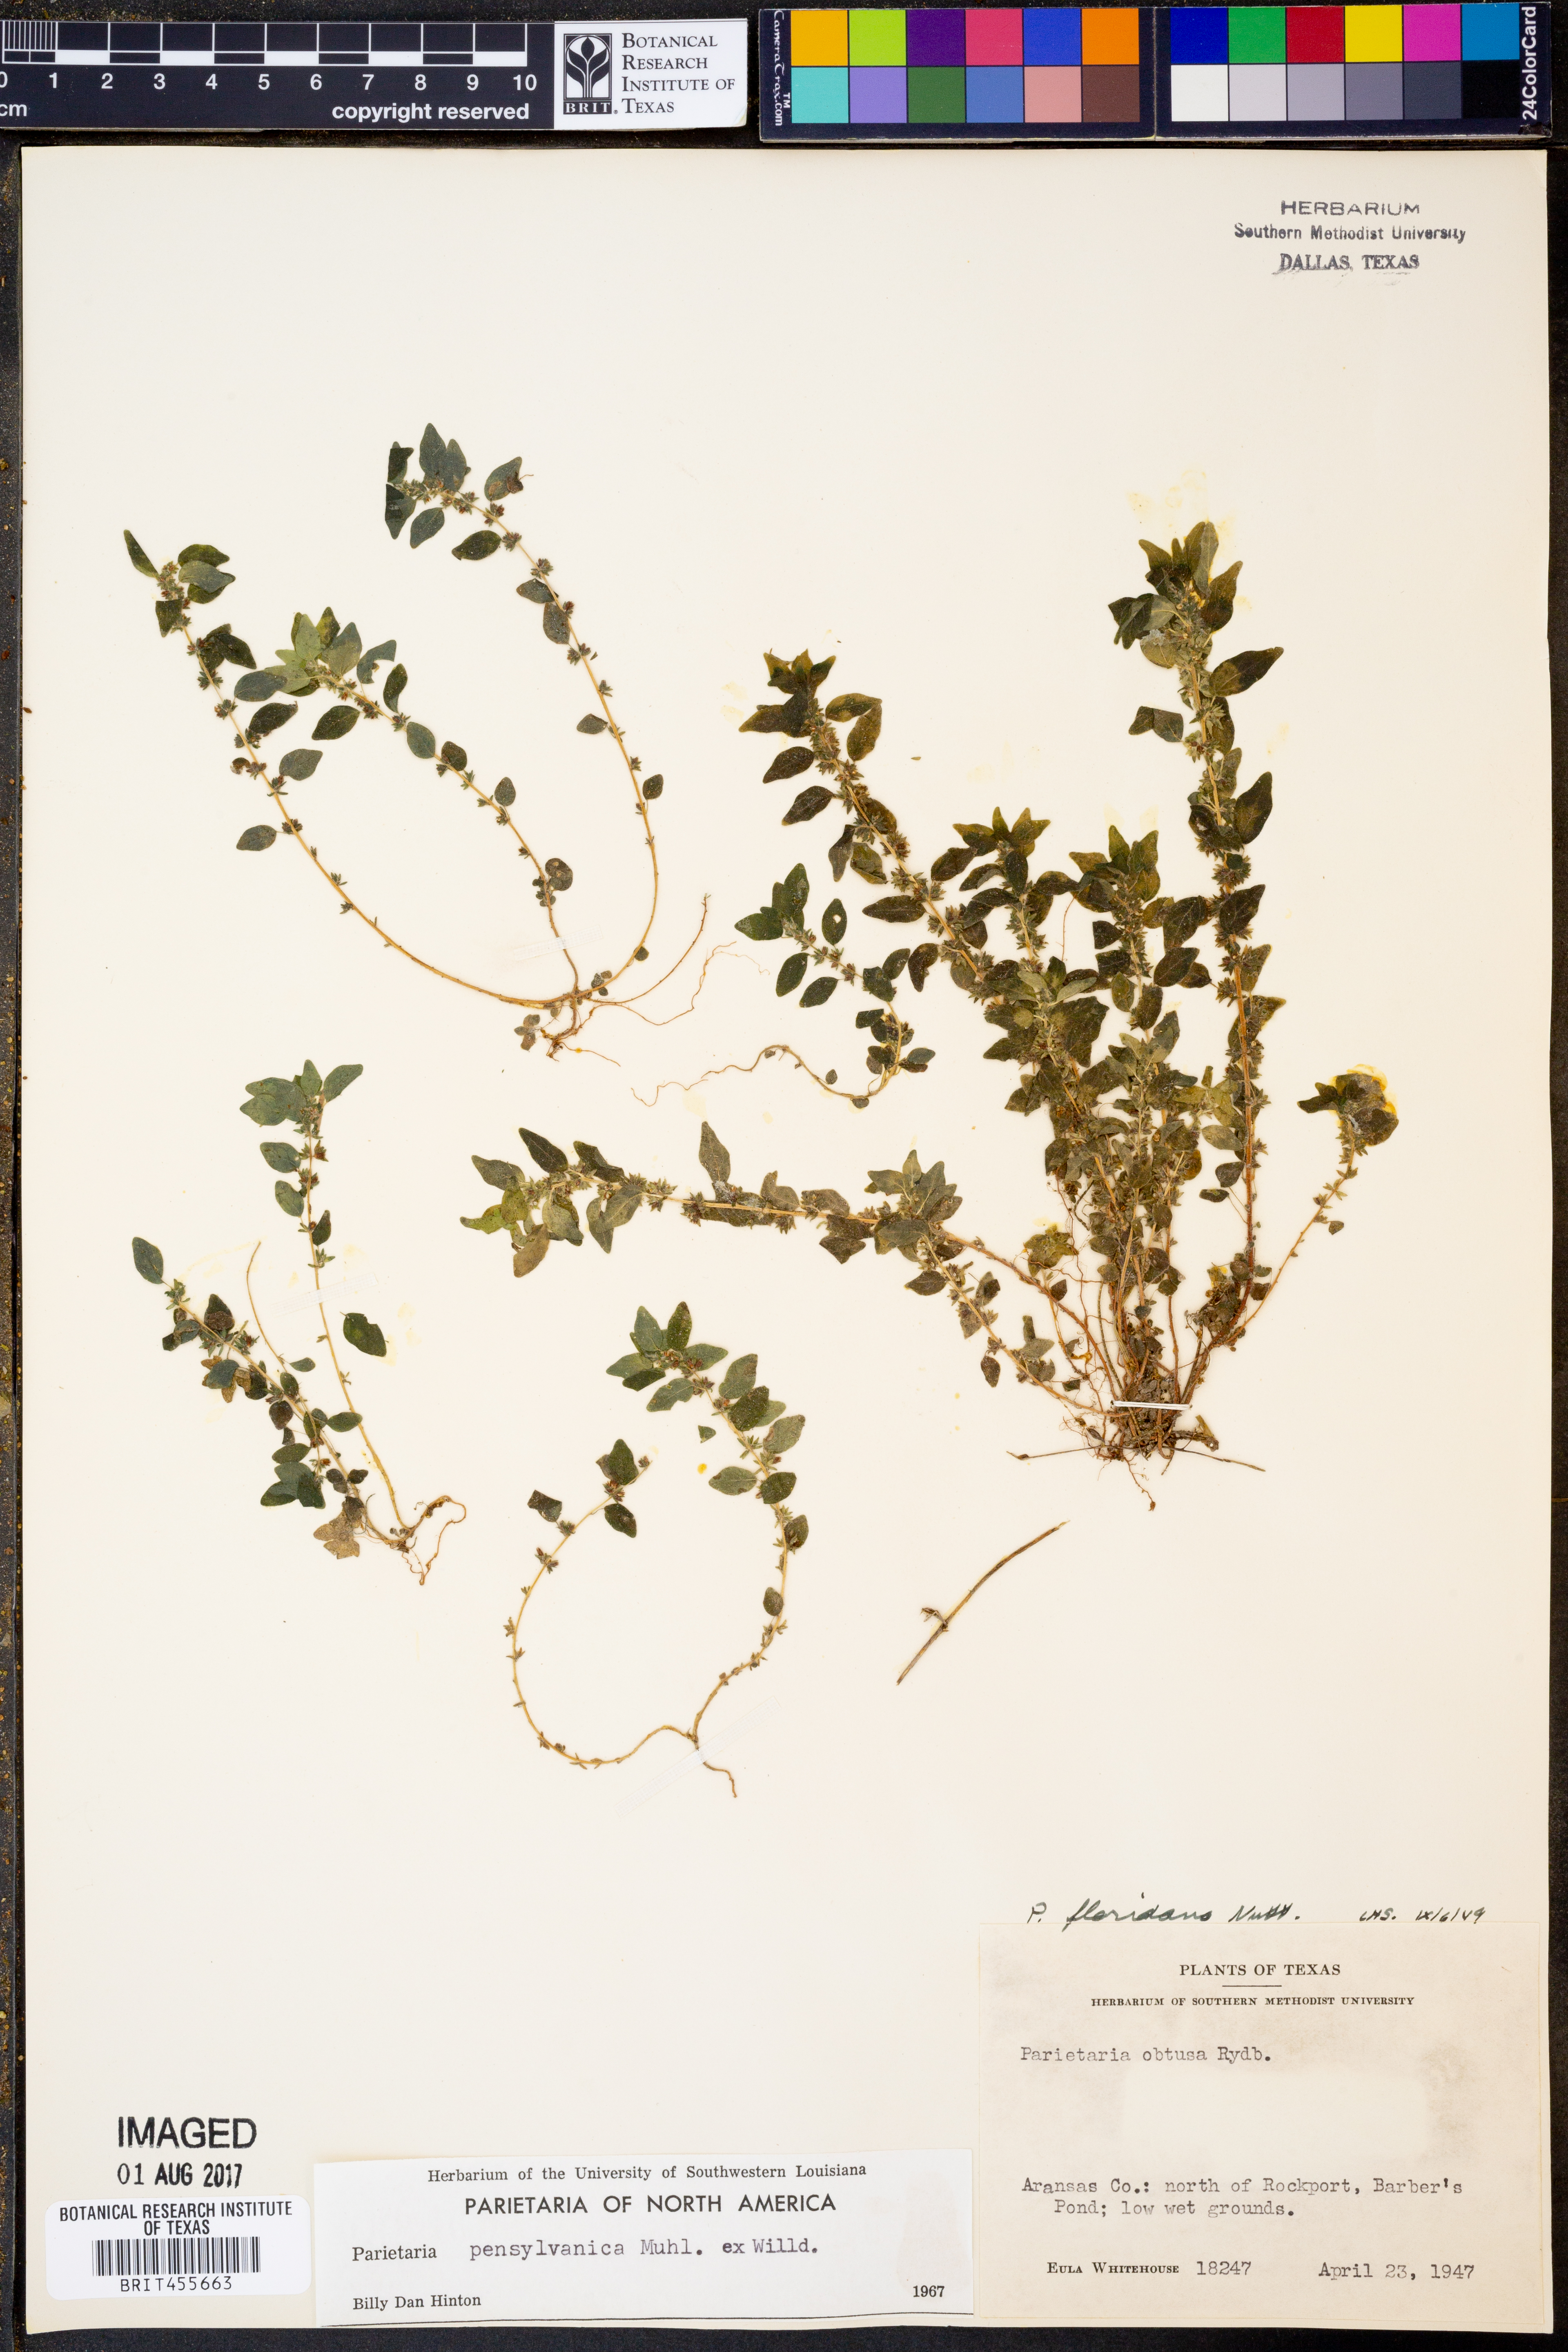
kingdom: Plantae
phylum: Tracheophyta
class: Magnoliopsida
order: Rosales
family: Urticaceae
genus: Parietaria
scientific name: Parietaria pensylvanica
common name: Pennsylvania pellitory
